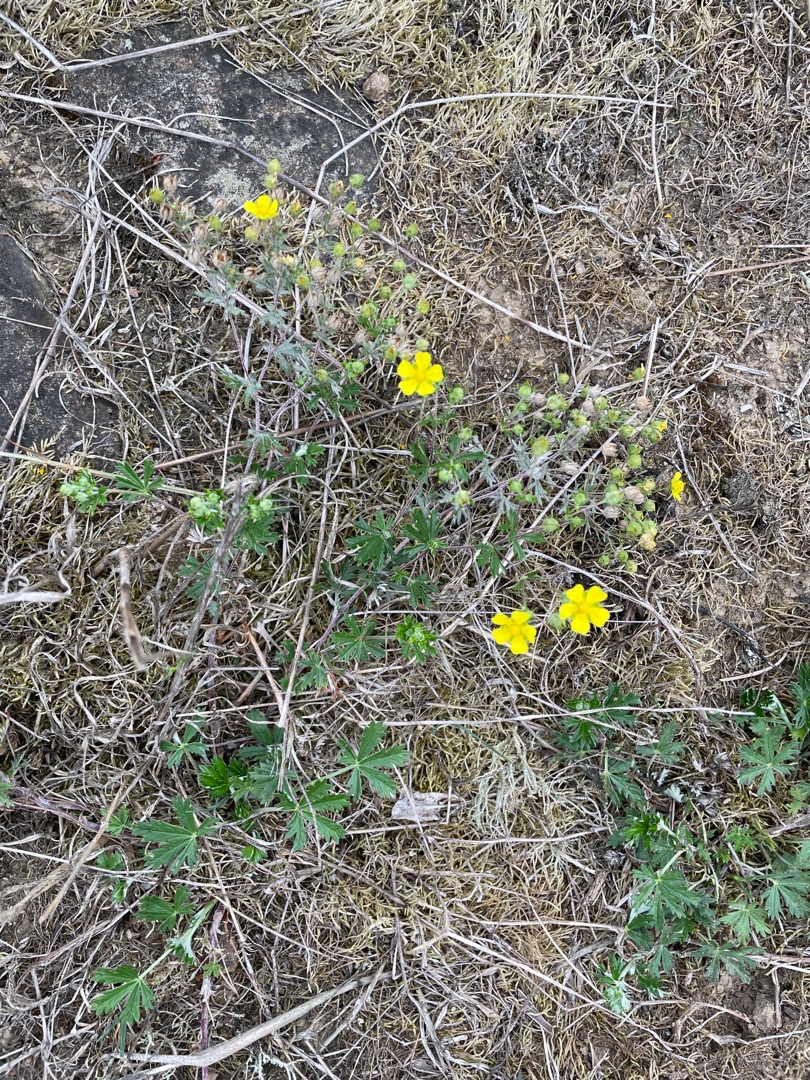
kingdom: Plantae
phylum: Tracheophyta
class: Magnoliopsida
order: Rosales
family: Rosaceae
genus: Potentilla
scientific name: Potentilla argentea
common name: Sølv-potentil
